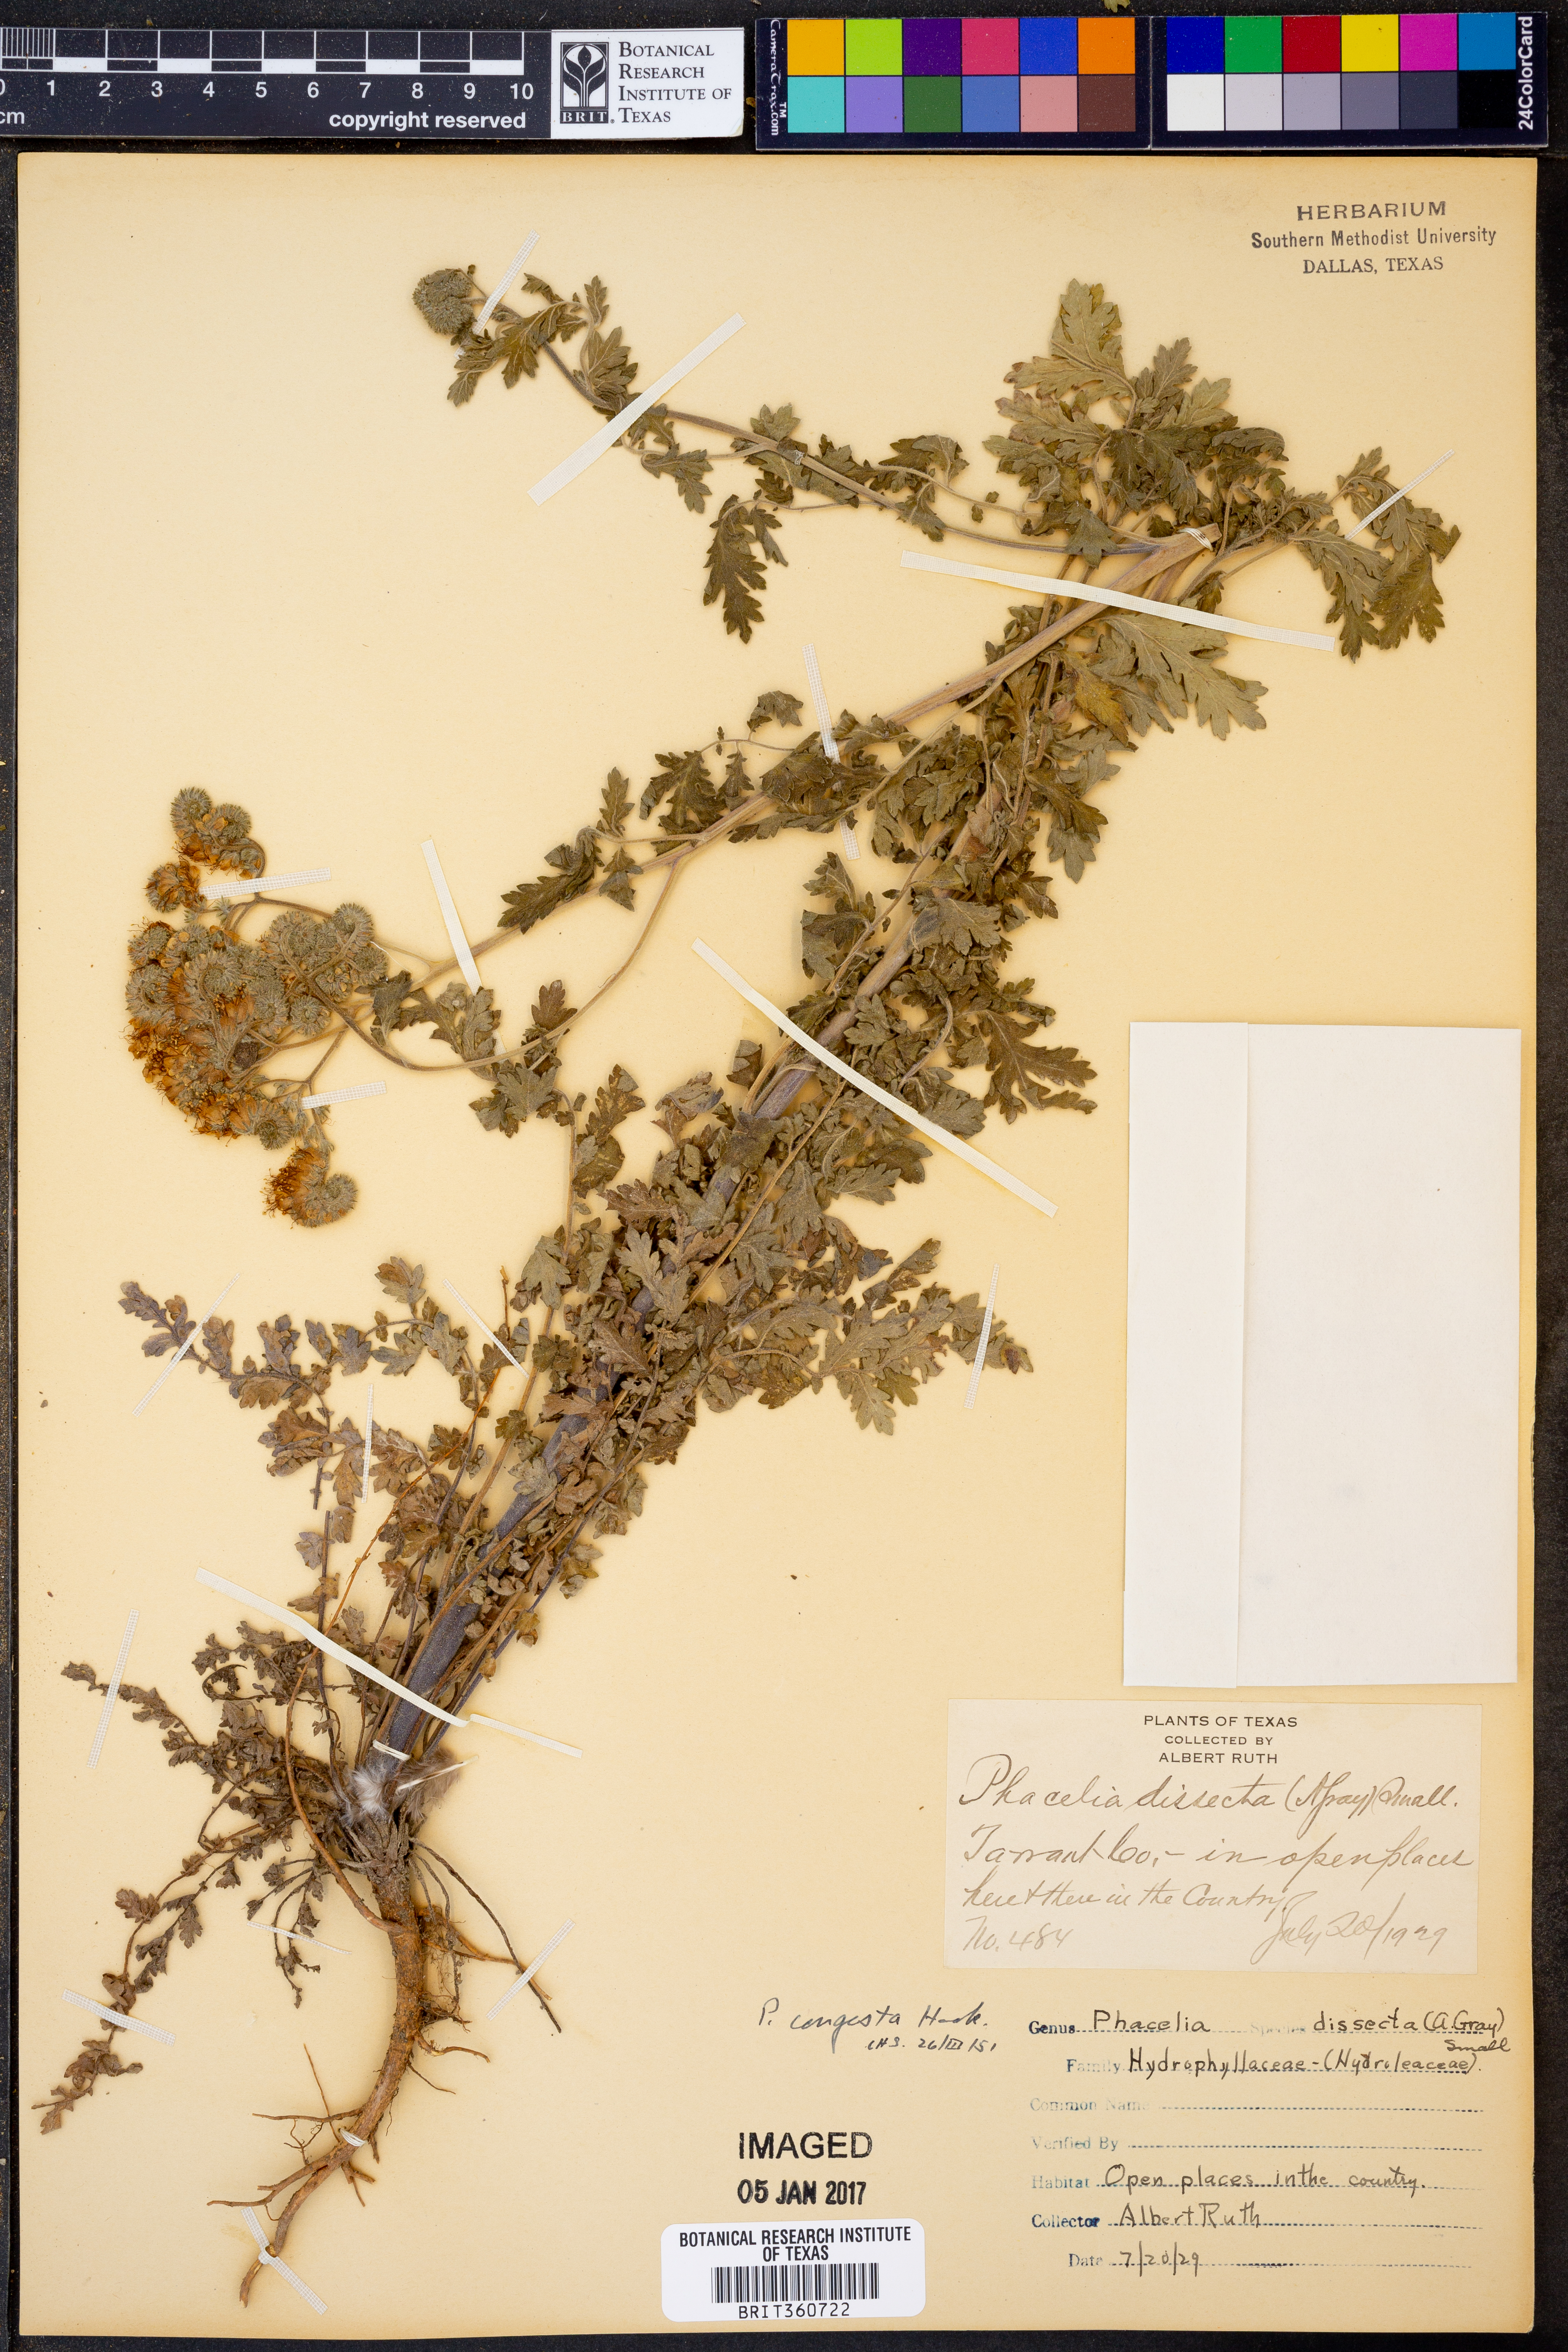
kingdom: Plantae
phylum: Tracheophyta
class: Magnoliopsida
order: Boraginales
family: Hydrophyllaceae
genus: Phacelia
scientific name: Phacelia congesta
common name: Blue curls
